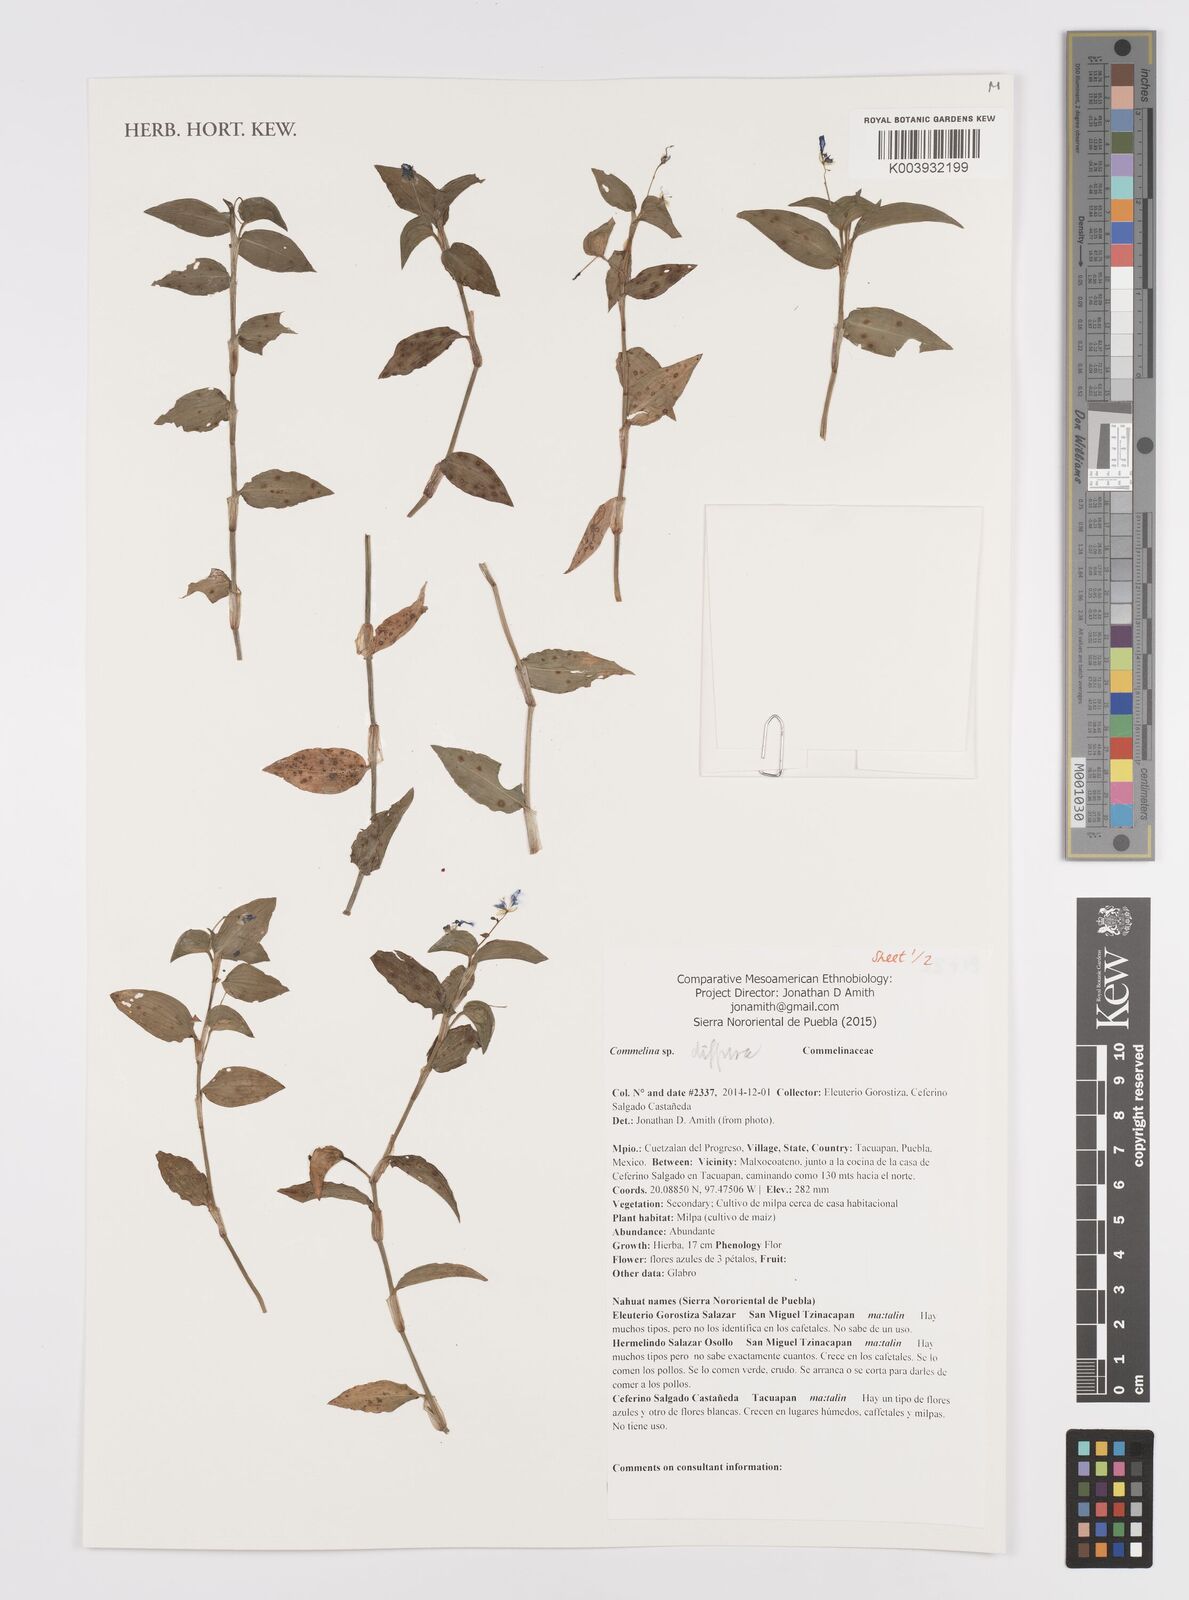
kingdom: Plantae
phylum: Tracheophyta
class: Liliopsida
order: Commelinales
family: Commelinaceae
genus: Commelina
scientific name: Commelina diffusa
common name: Climbing dayflower
